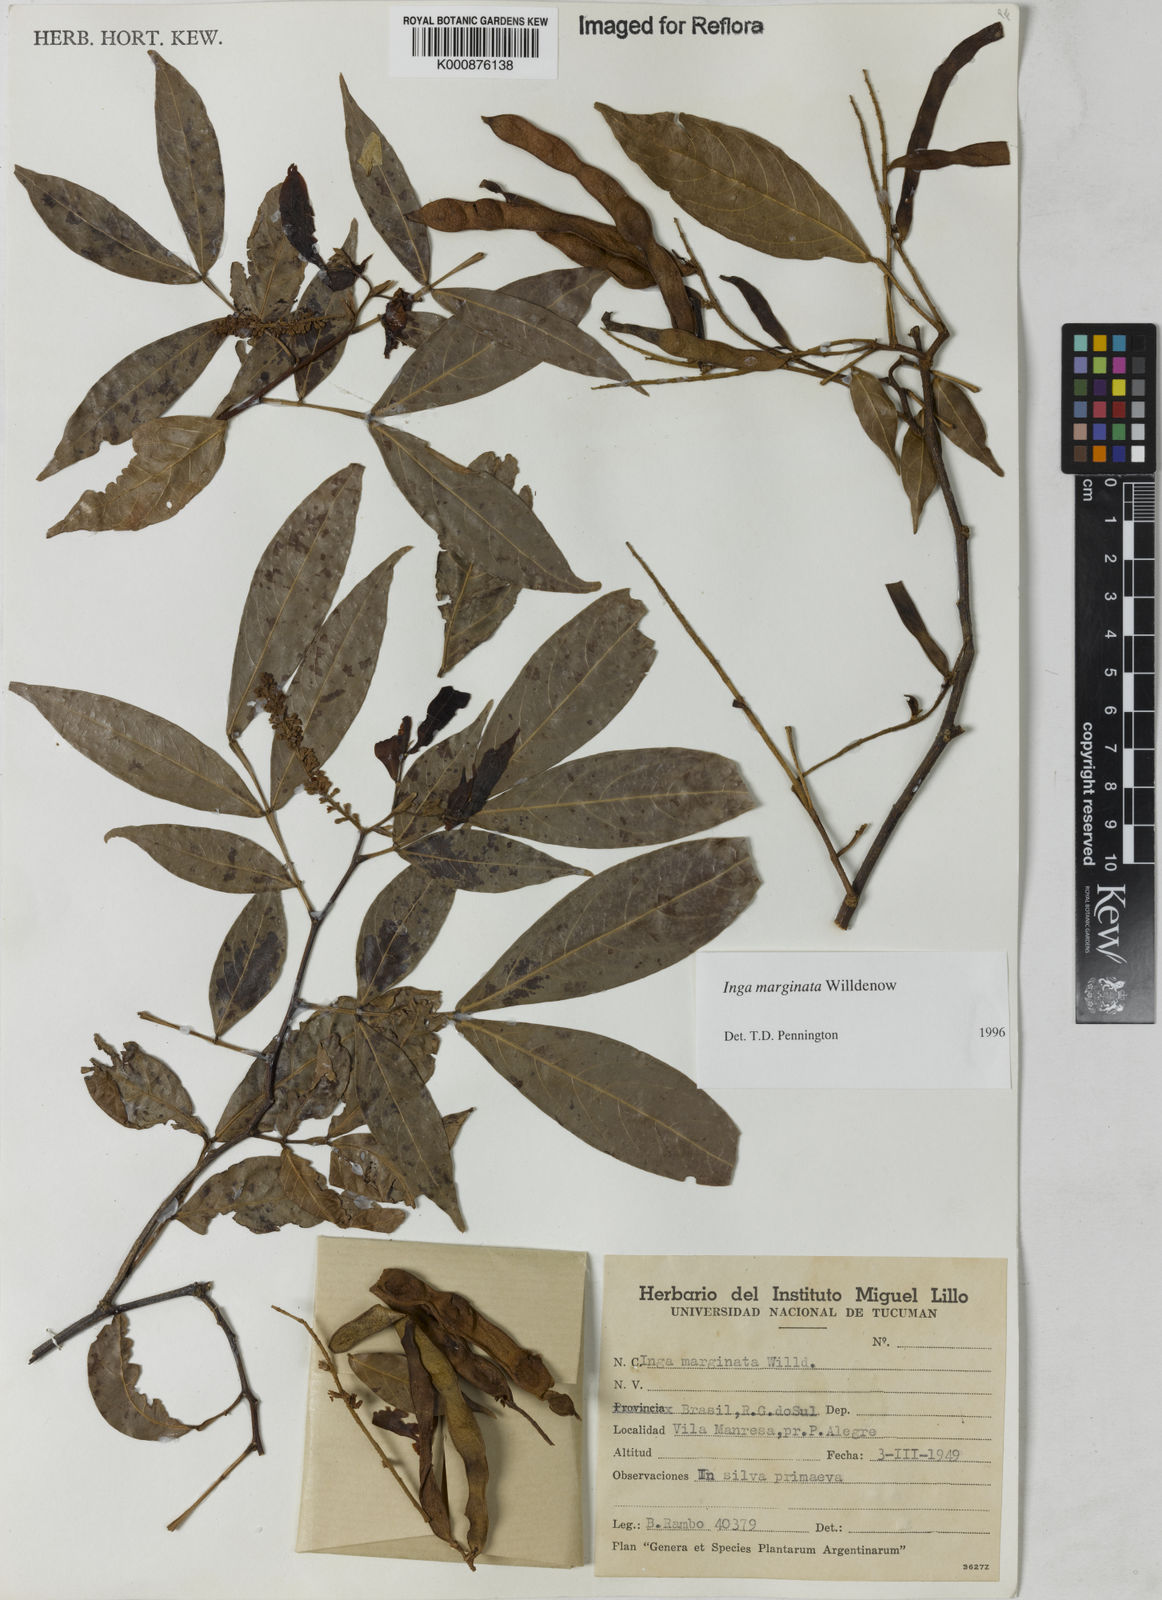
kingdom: Plantae
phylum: Tracheophyta
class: Magnoliopsida
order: Fabales
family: Fabaceae
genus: Inga
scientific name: Inga marginata
